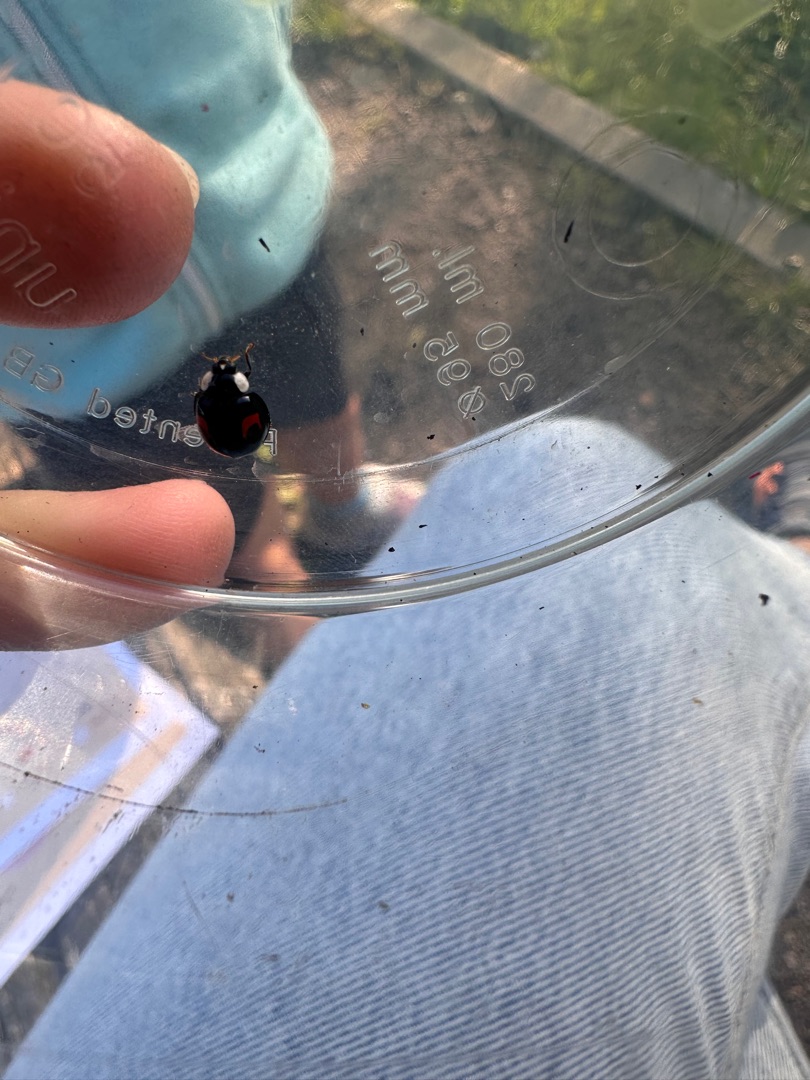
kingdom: Animalia
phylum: Arthropoda
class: Insecta
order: Coleoptera
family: Coccinellidae
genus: Harmonia
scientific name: Harmonia axyridis
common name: Harlekinmariehøne
